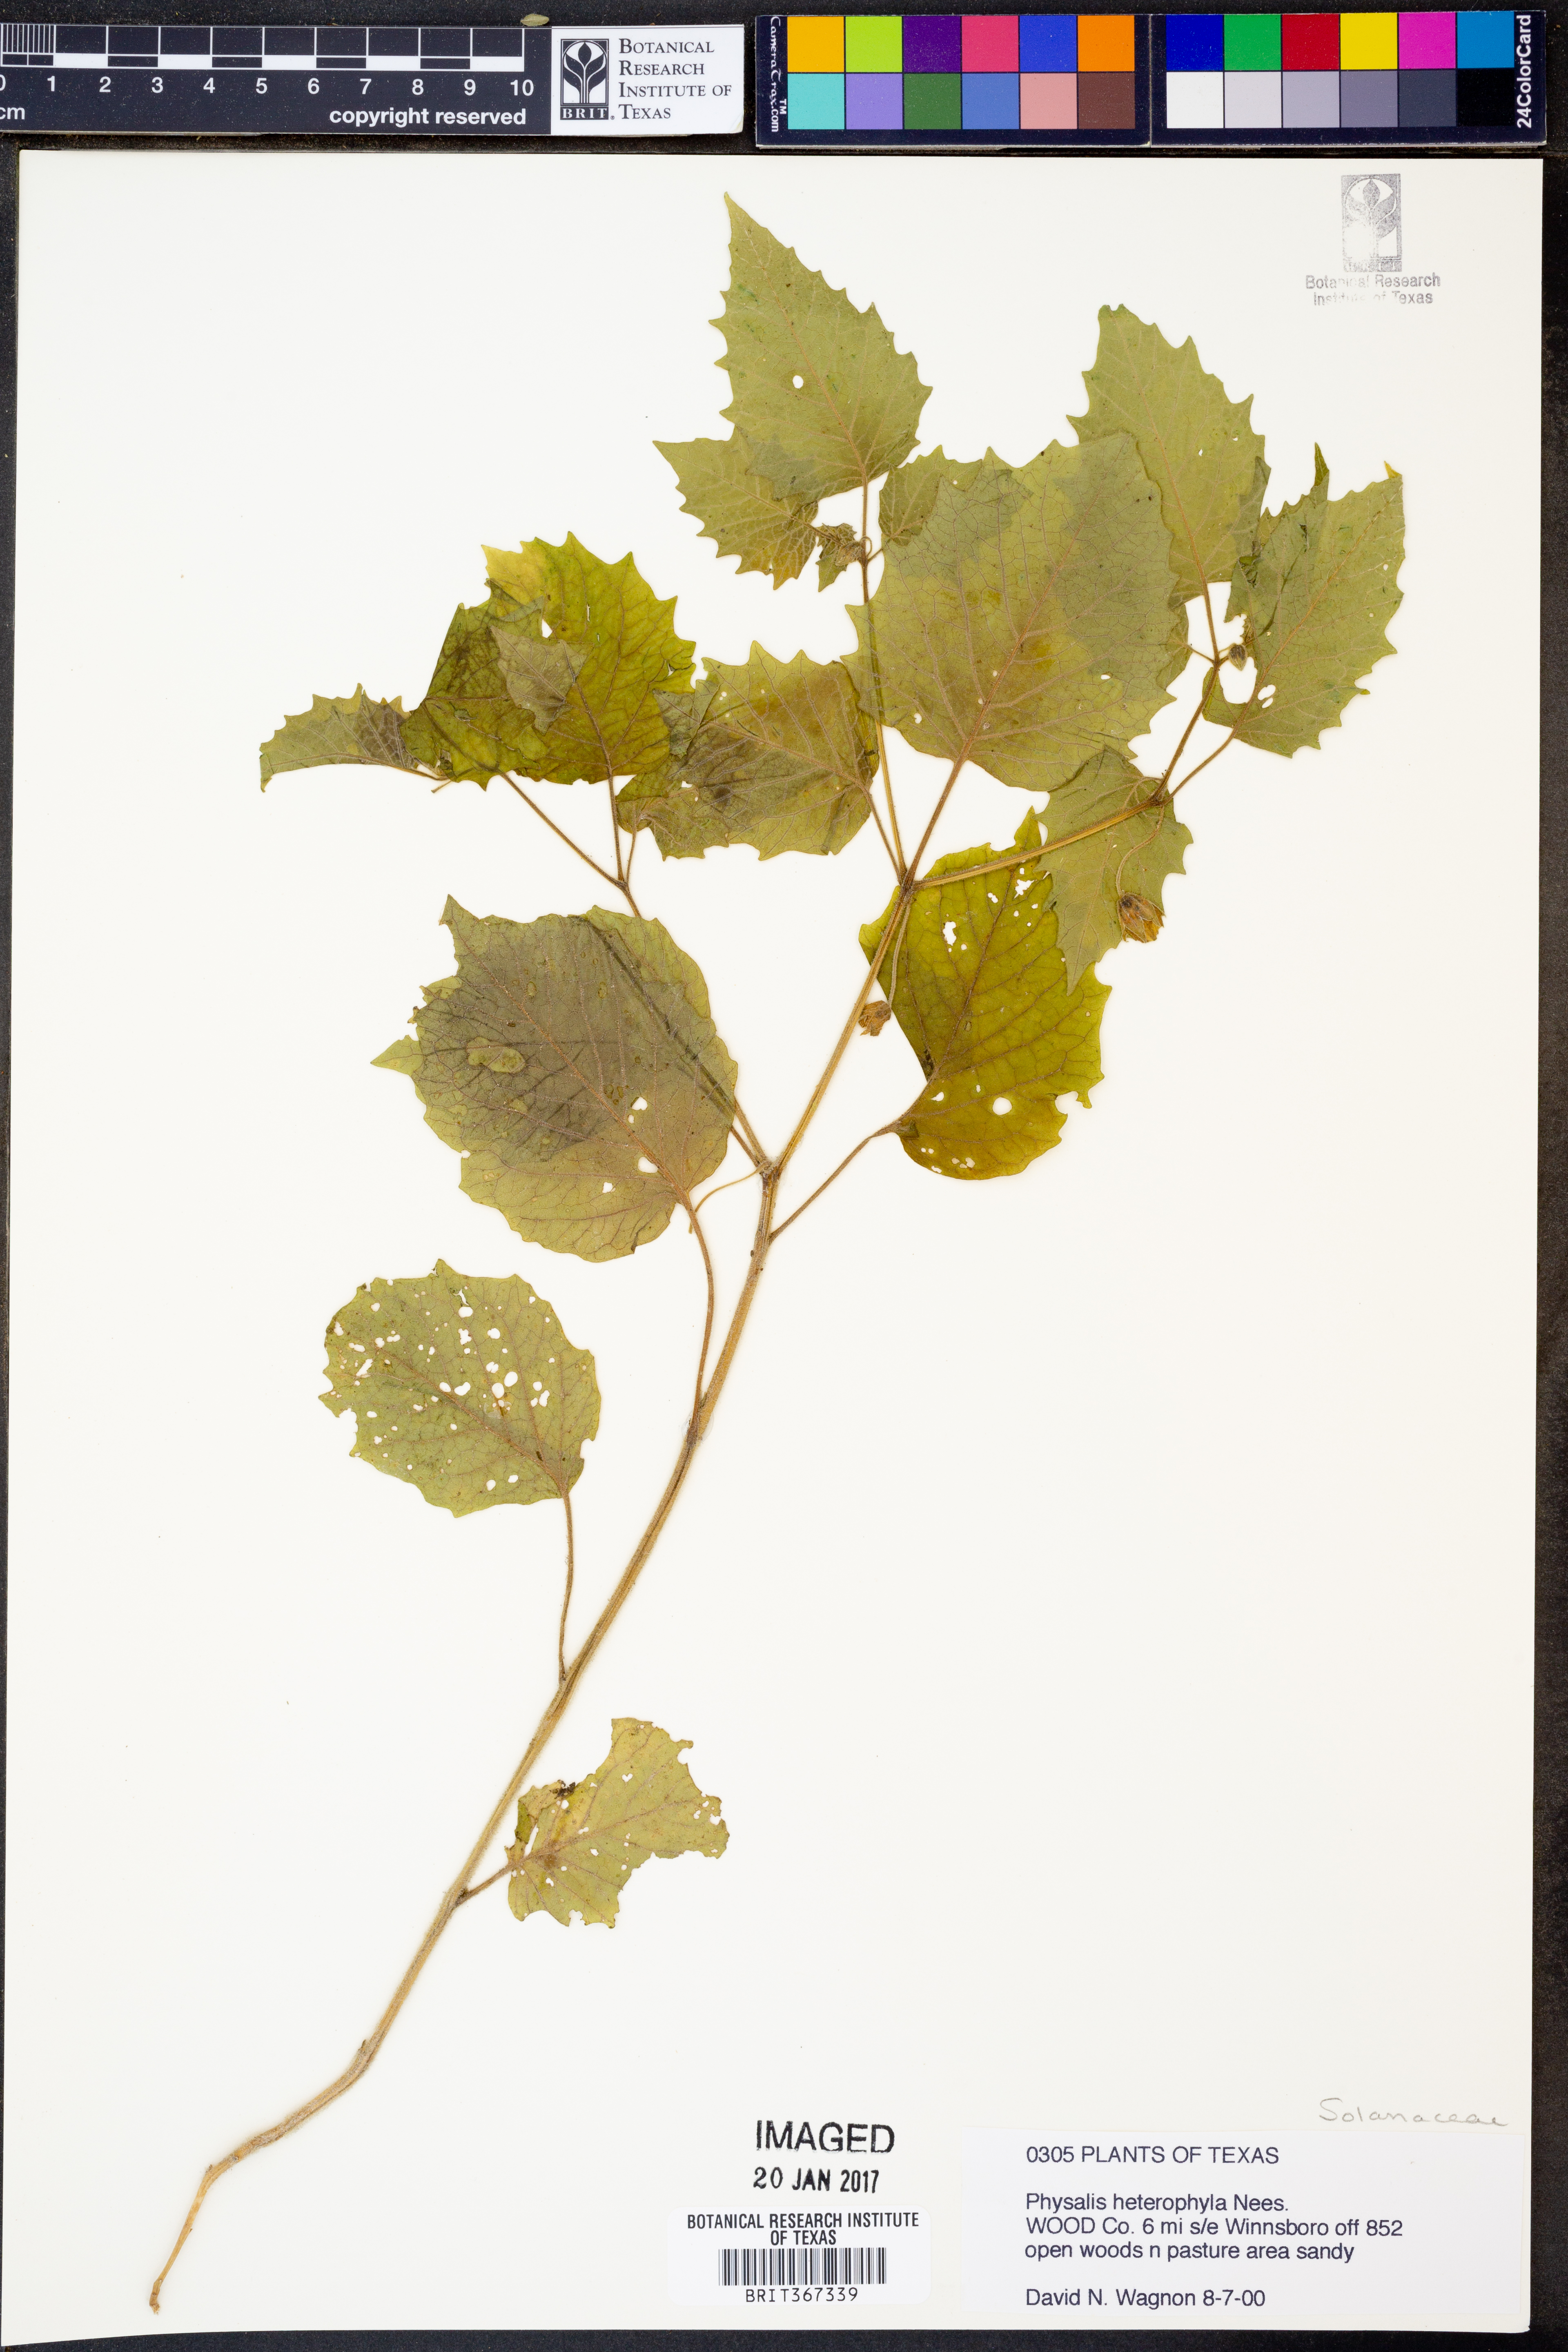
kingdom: Plantae
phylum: Tracheophyta
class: Magnoliopsida
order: Solanales
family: Solanaceae
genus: Physalis
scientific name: Physalis heterophylla
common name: Clammy ground-cherry
